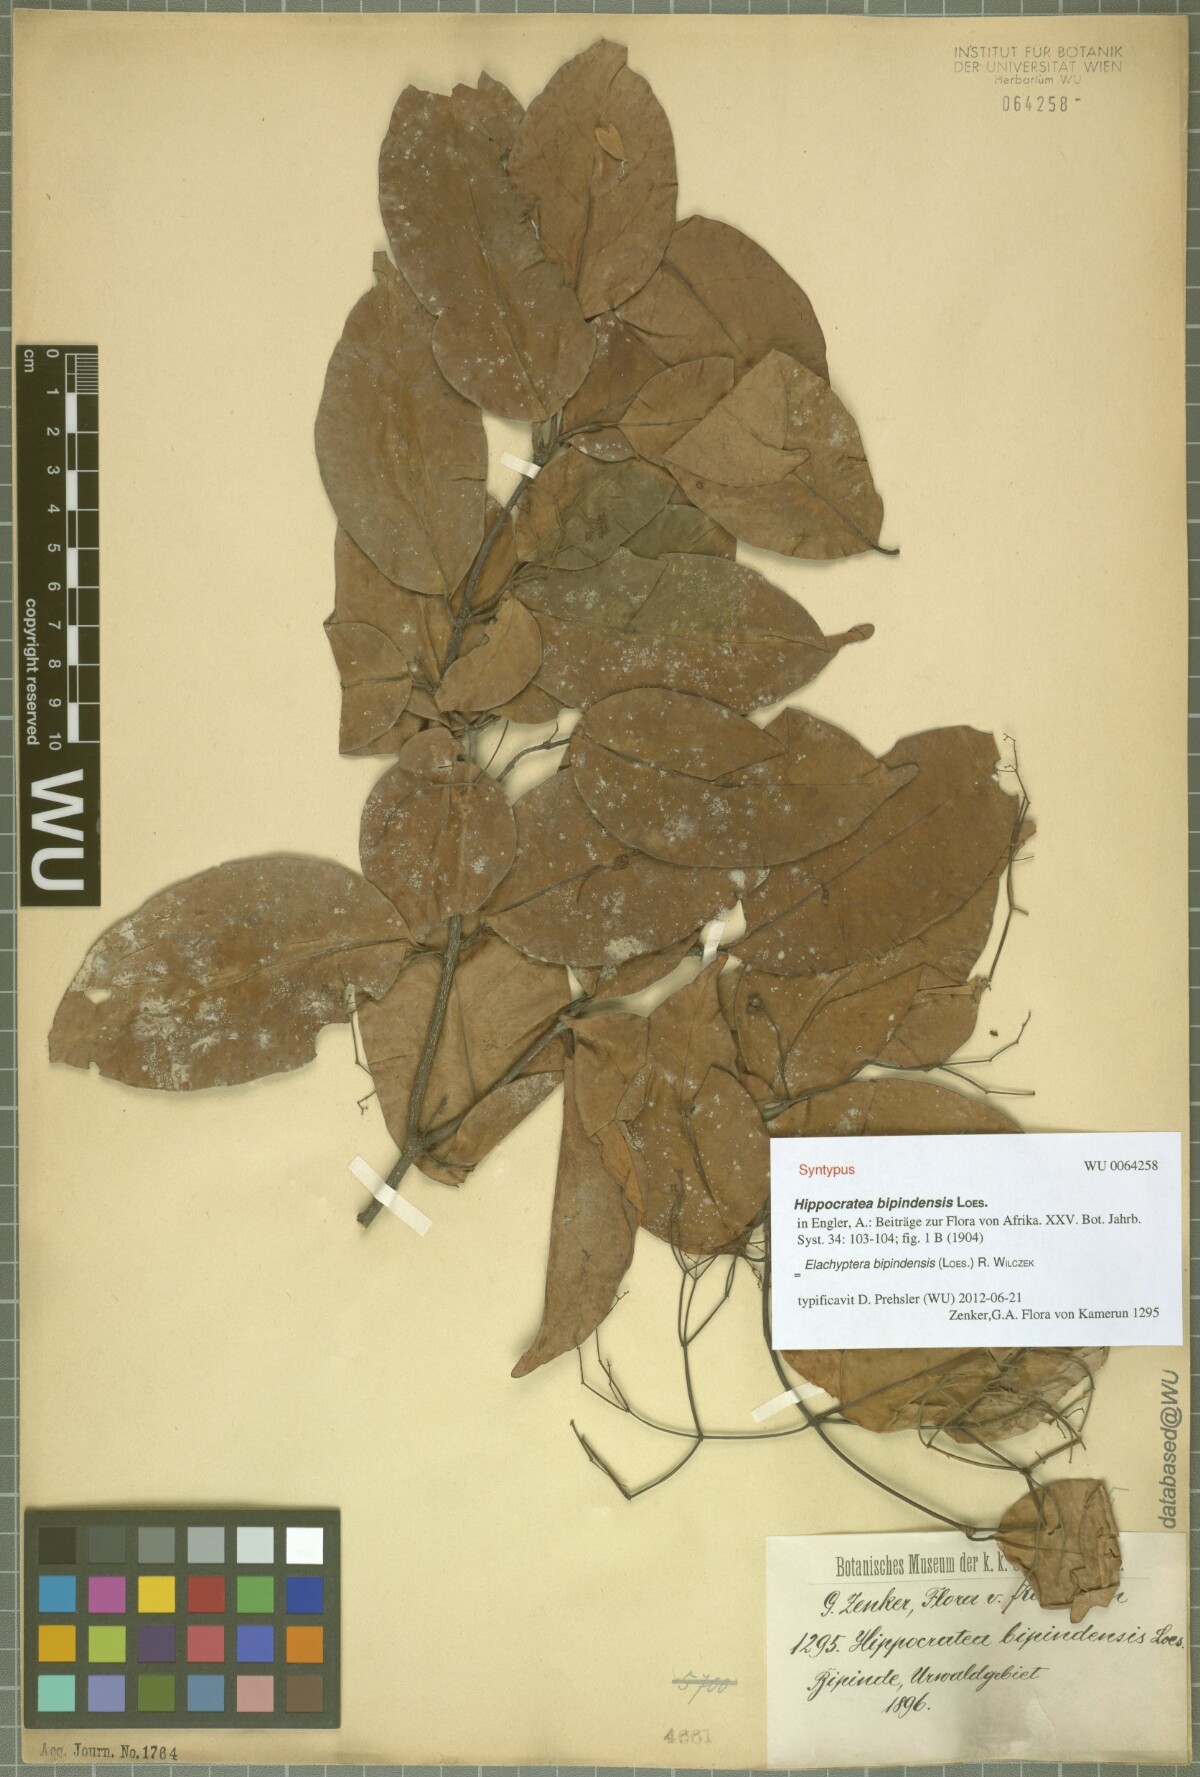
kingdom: Plantae
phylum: Tracheophyta
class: Magnoliopsida
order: Celastrales
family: Celastraceae
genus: Elachyptera
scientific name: Elachyptera bipindensis
